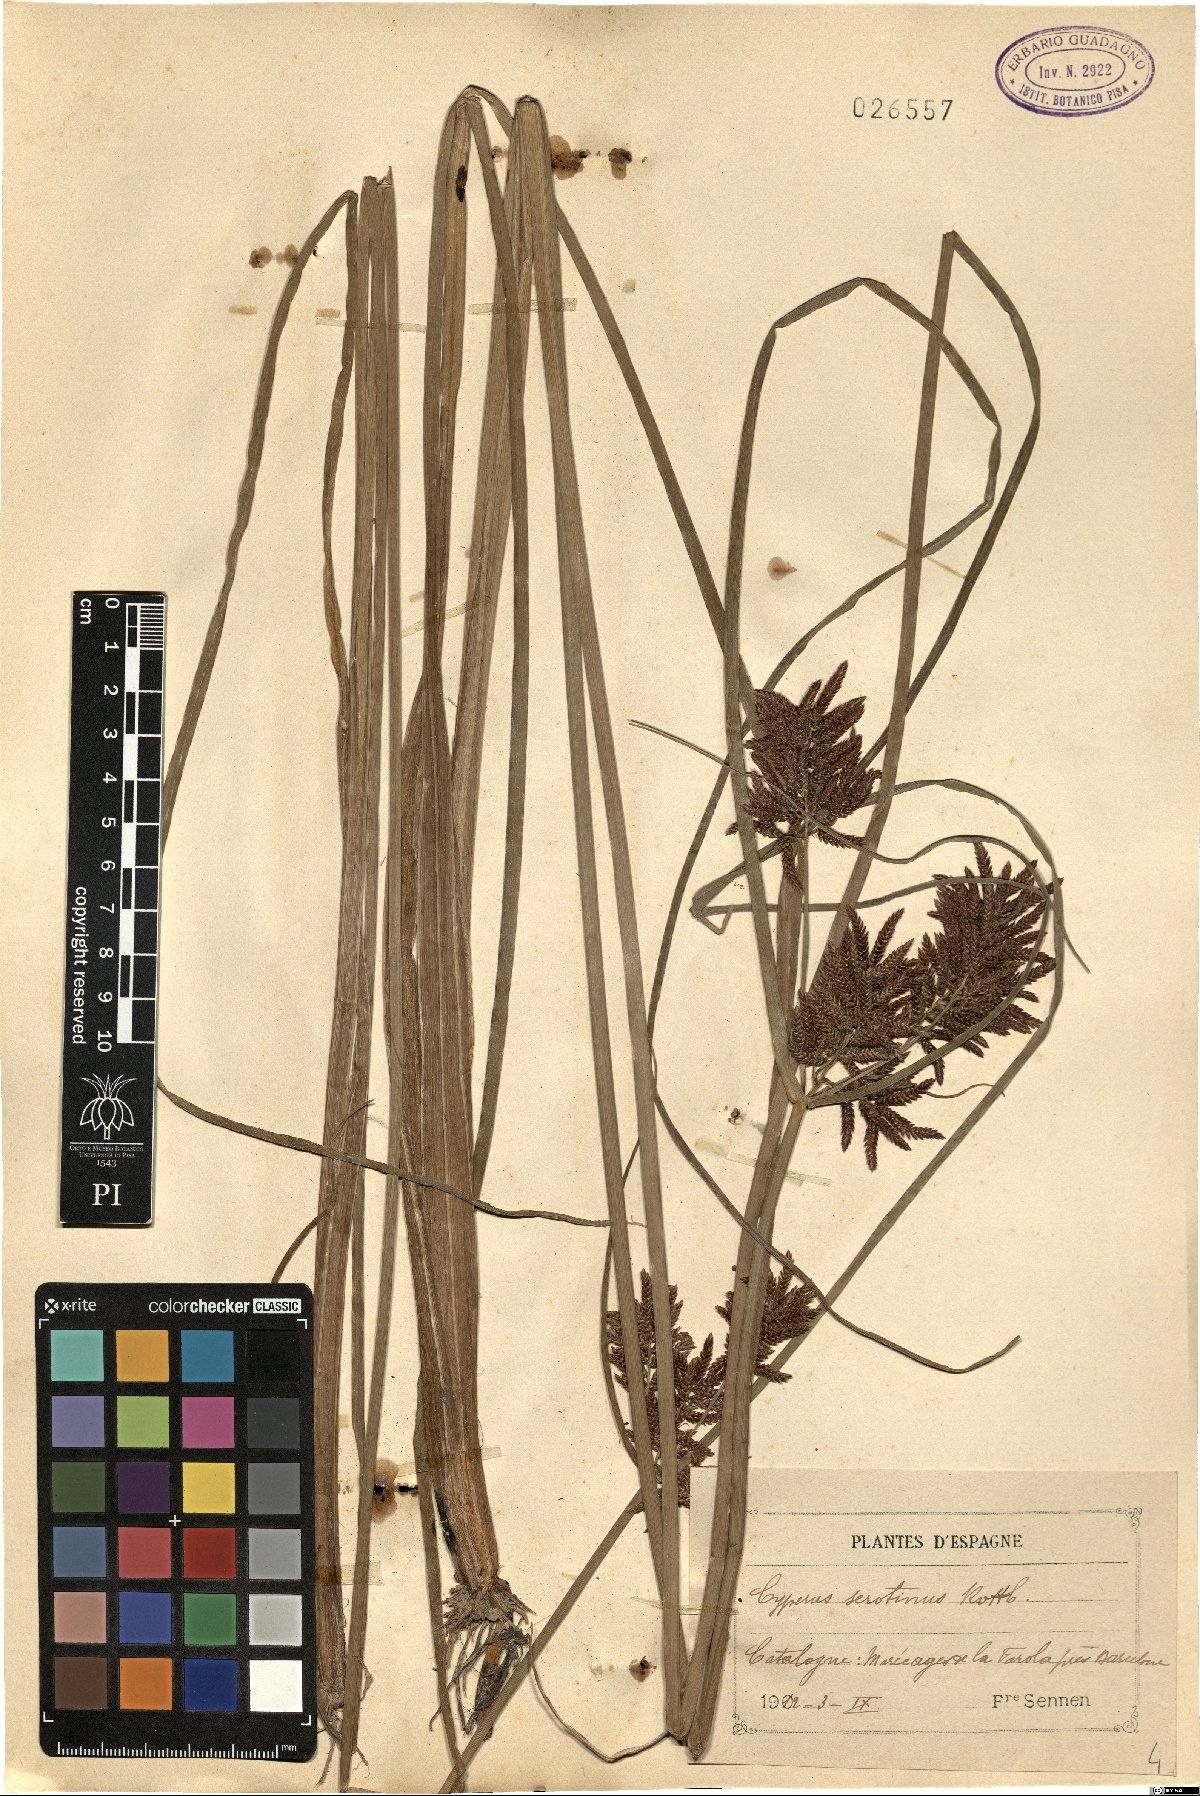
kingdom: Plantae
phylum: Tracheophyta
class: Liliopsida
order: Poales
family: Cyperaceae
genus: Cyperus
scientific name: Cyperus serotinus
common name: Tidalmarsh flatsedge
